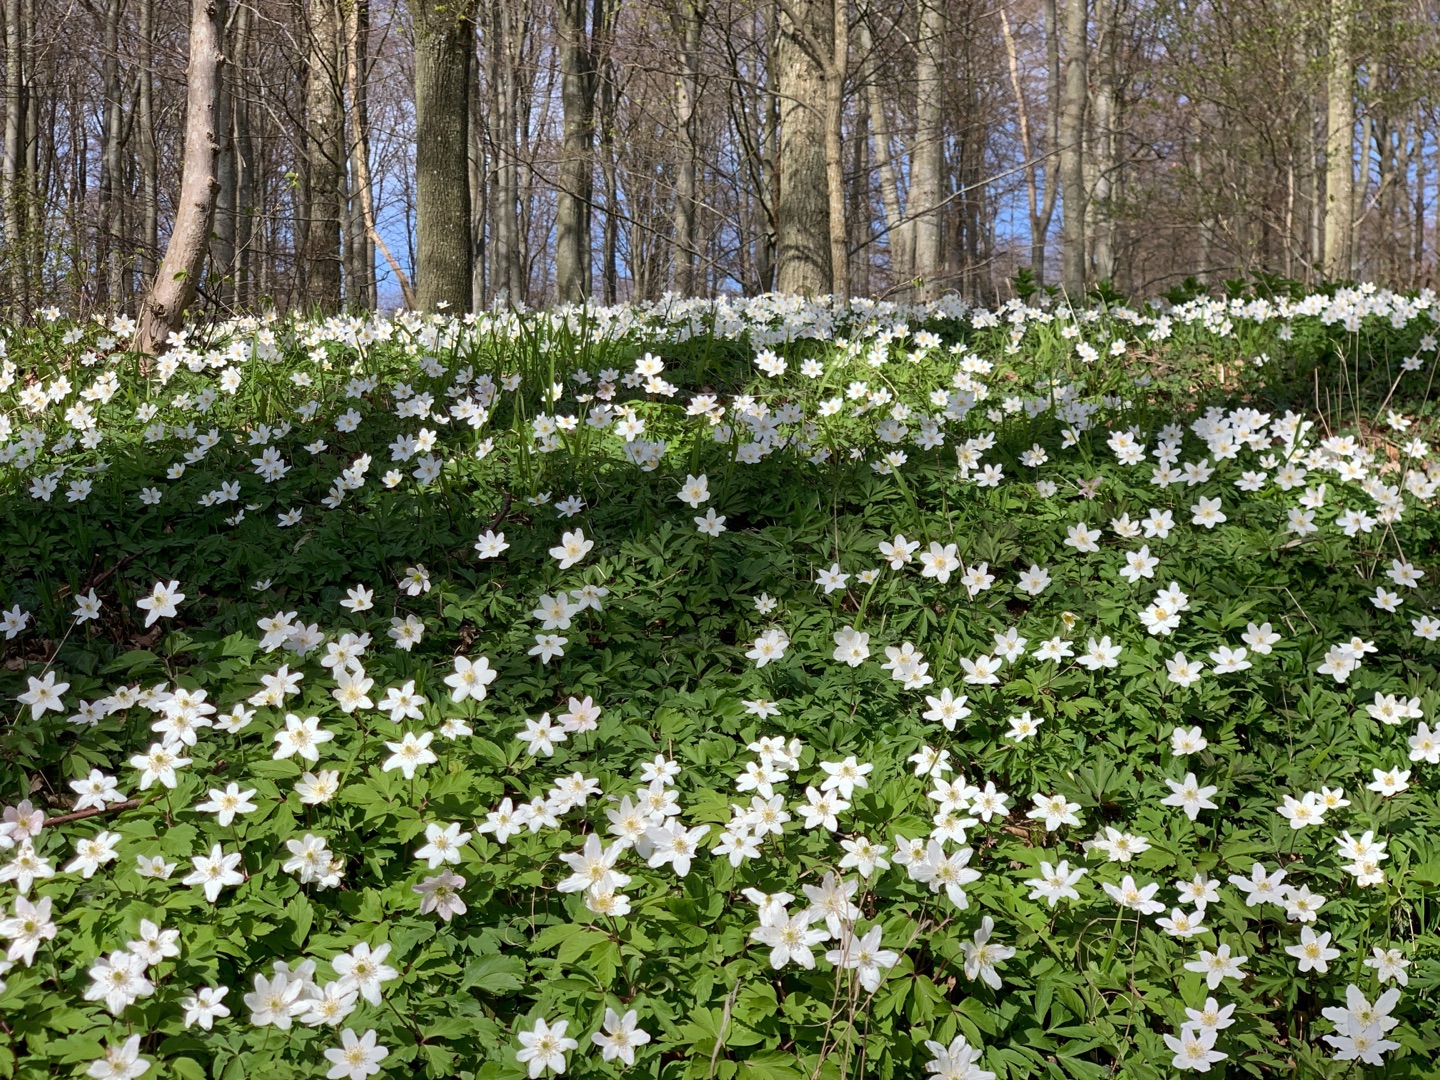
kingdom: Plantae
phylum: Tracheophyta
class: Magnoliopsida
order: Ranunculales
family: Ranunculaceae
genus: Anemone
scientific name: Anemone nemorosa
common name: Hvid anemone
